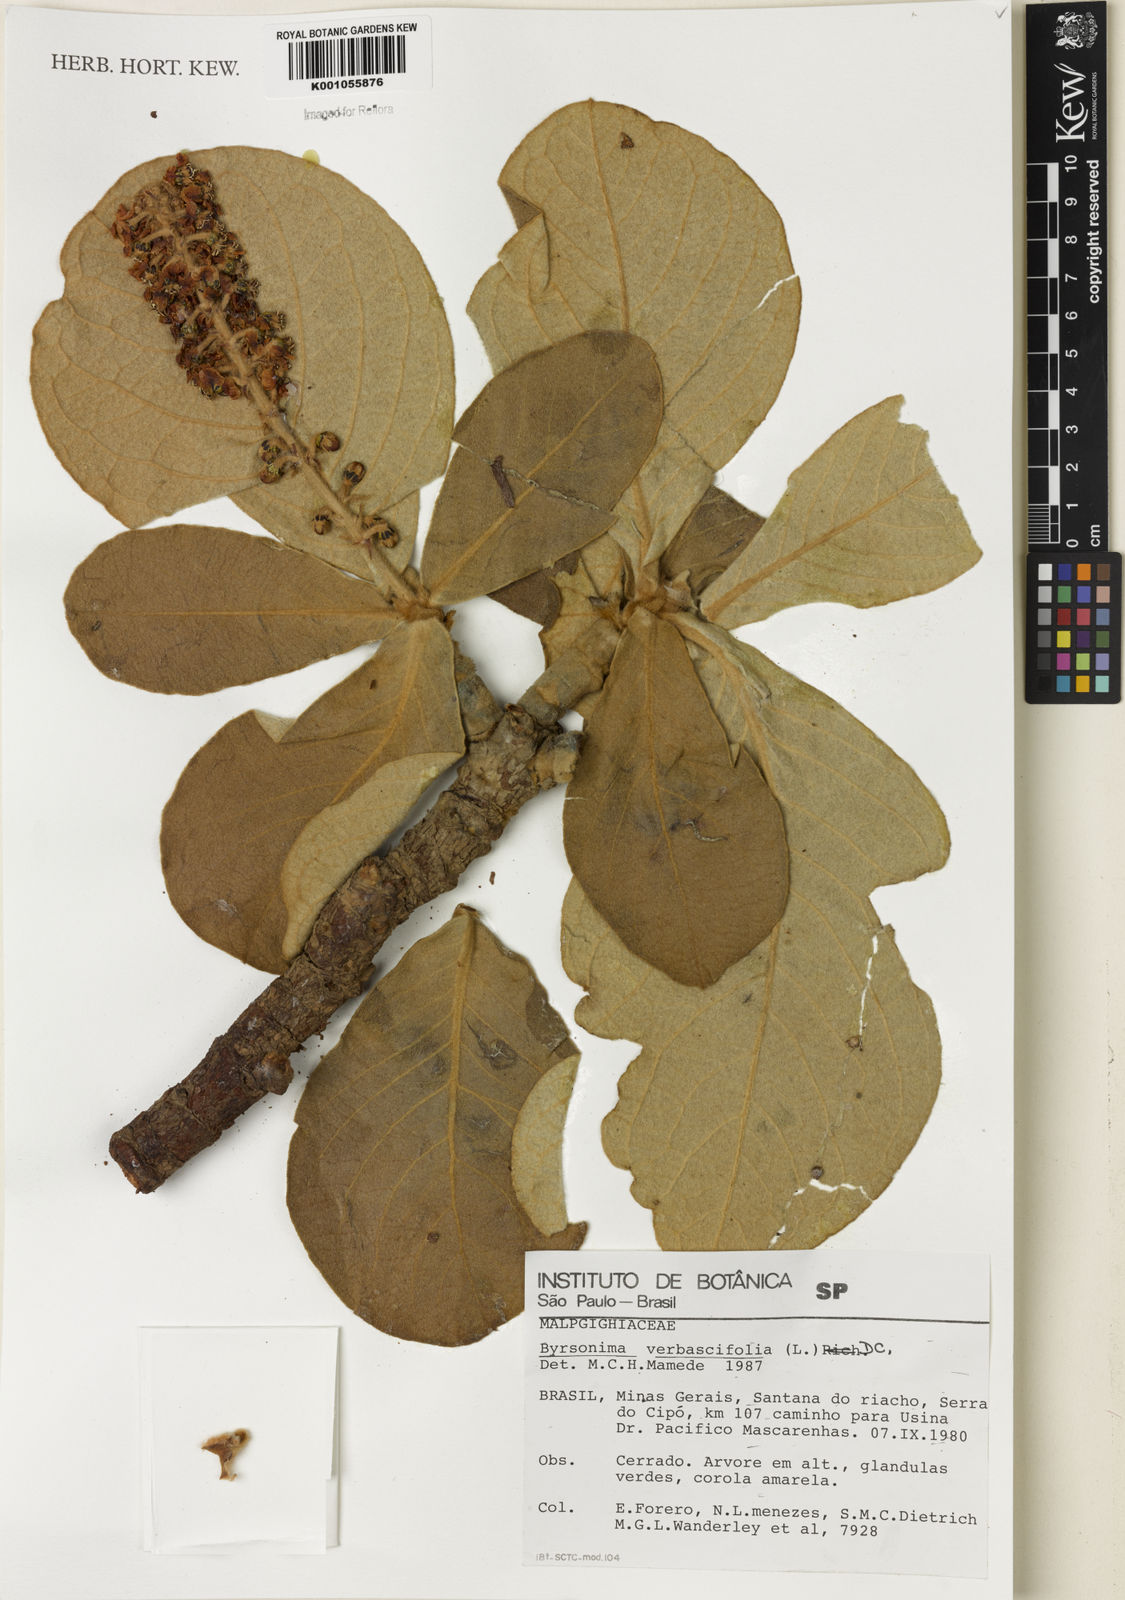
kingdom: Plantae
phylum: Tracheophyta
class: Magnoliopsida
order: Malpighiales
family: Malpighiaceae
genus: Byrsonima
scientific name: Byrsonima verbascifolia
